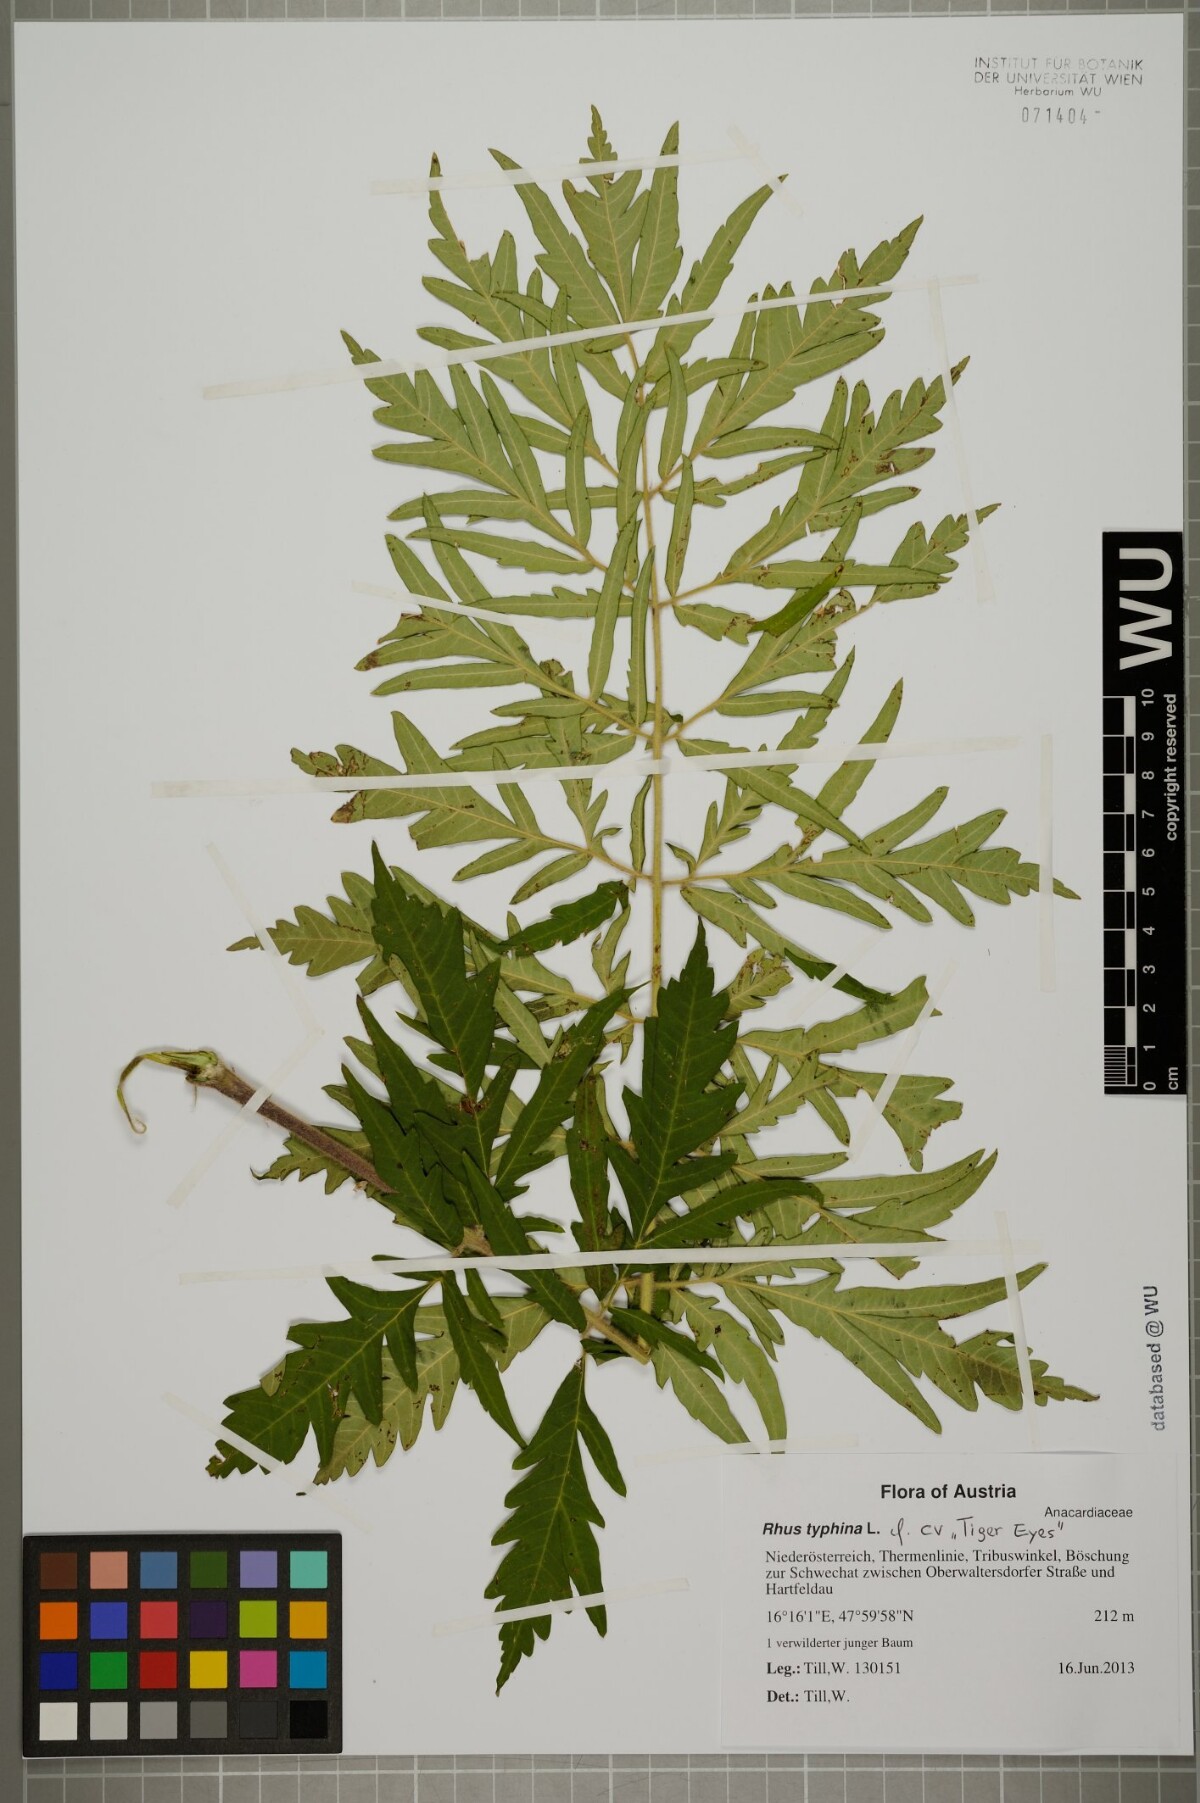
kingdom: Plantae
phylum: Tracheophyta
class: Magnoliopsida
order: Sapindales
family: Anacardiaceae
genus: Rhus
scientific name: Rhus typhina
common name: Staghorn sumac
